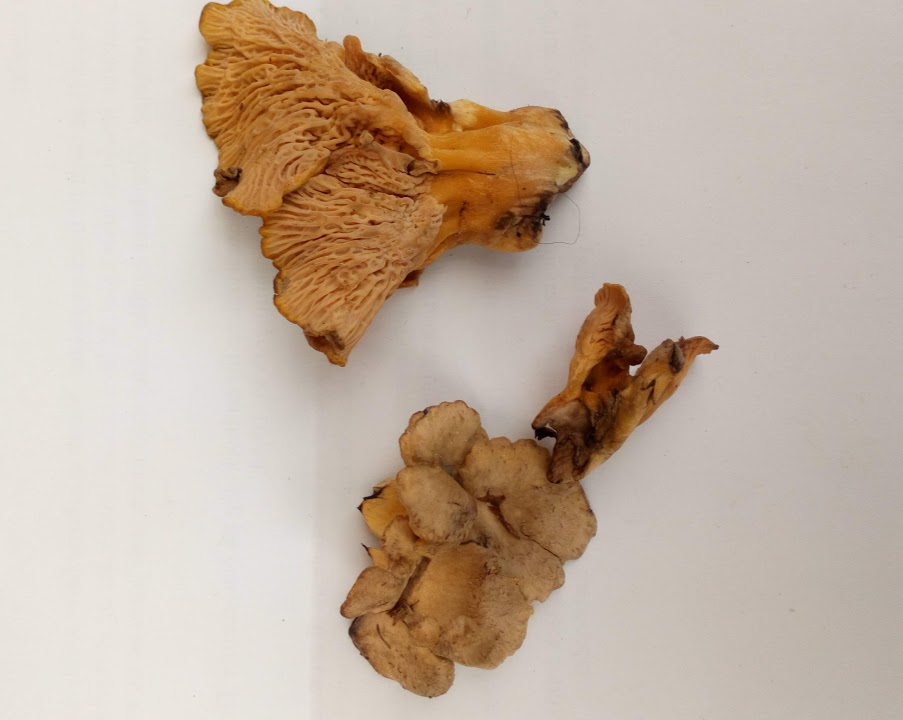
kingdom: Fungi
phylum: Basidiomycota
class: Agaricomycetes
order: Cantharellales
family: Hydnaceae
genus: Cantharellus
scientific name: Cantharellus melanoxeros
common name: sværtende kantarel
